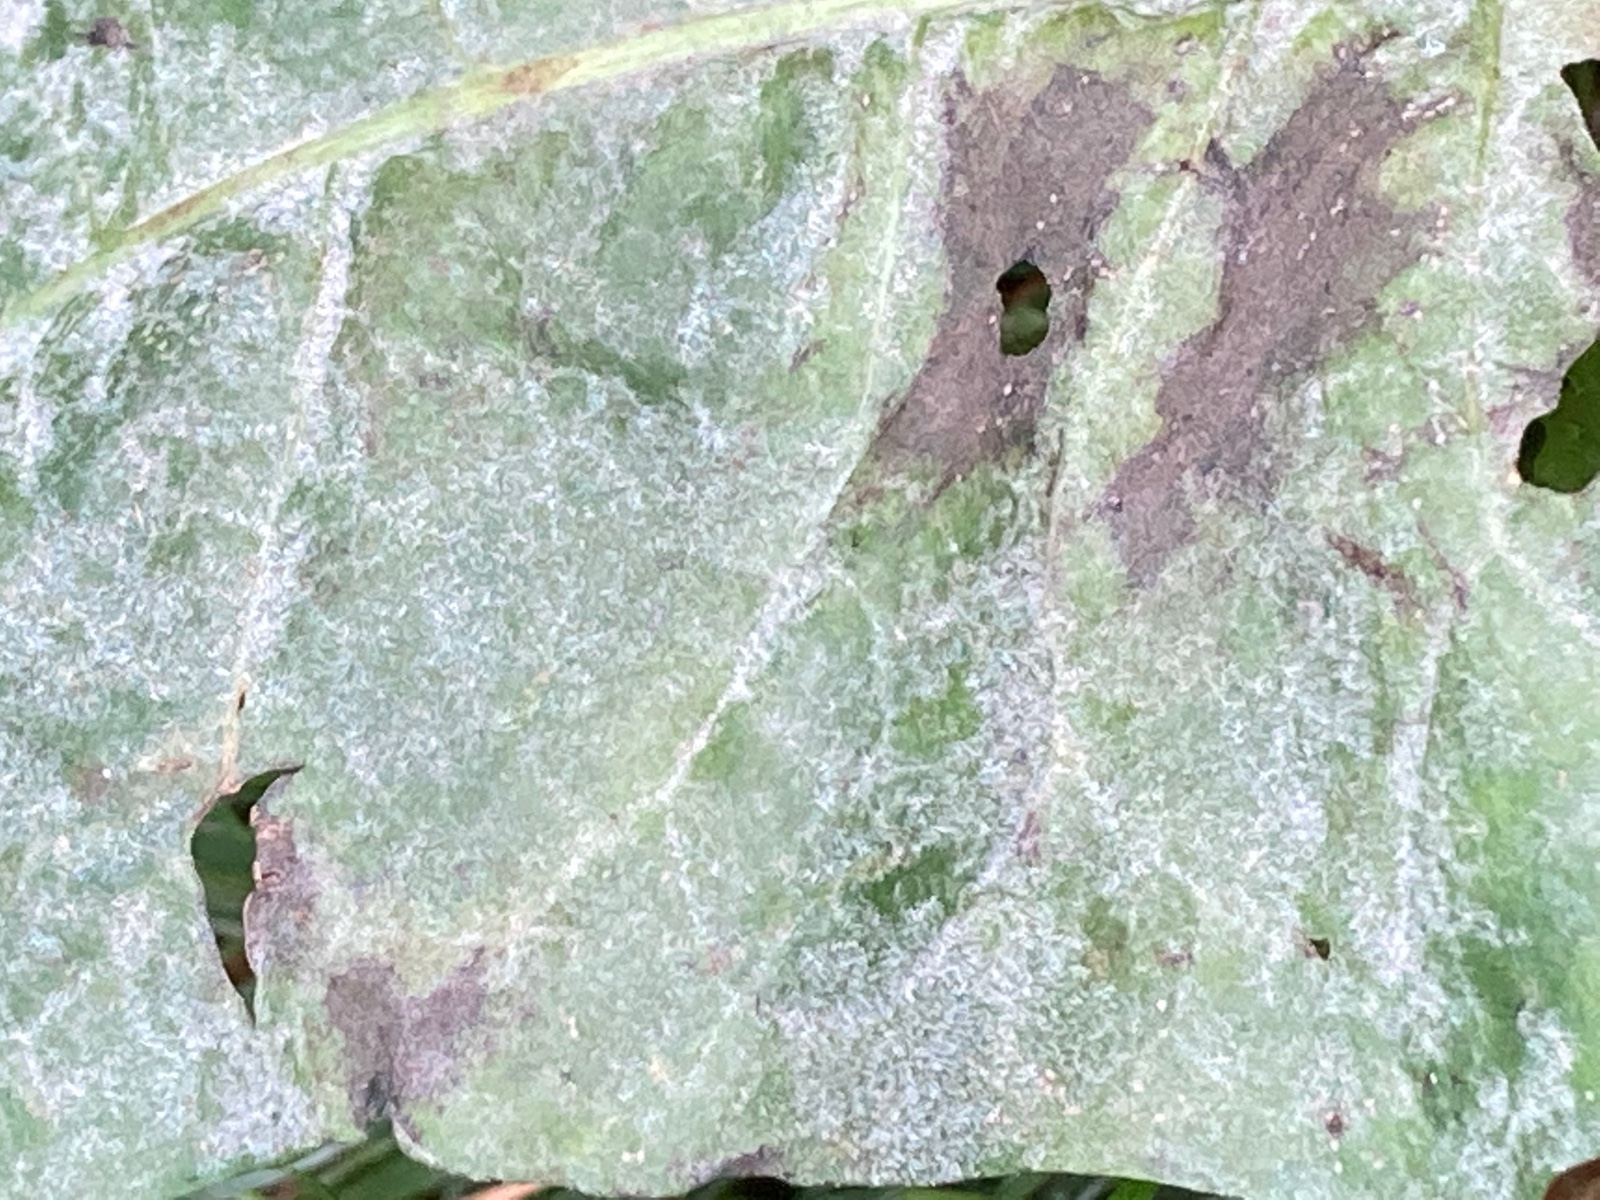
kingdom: Fungi
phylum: Ascomycota
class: Leotiomycetes
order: Helotiales
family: Erysiphaceae
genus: Podosphaera
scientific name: Podosphaera erigerontis-canadensis
